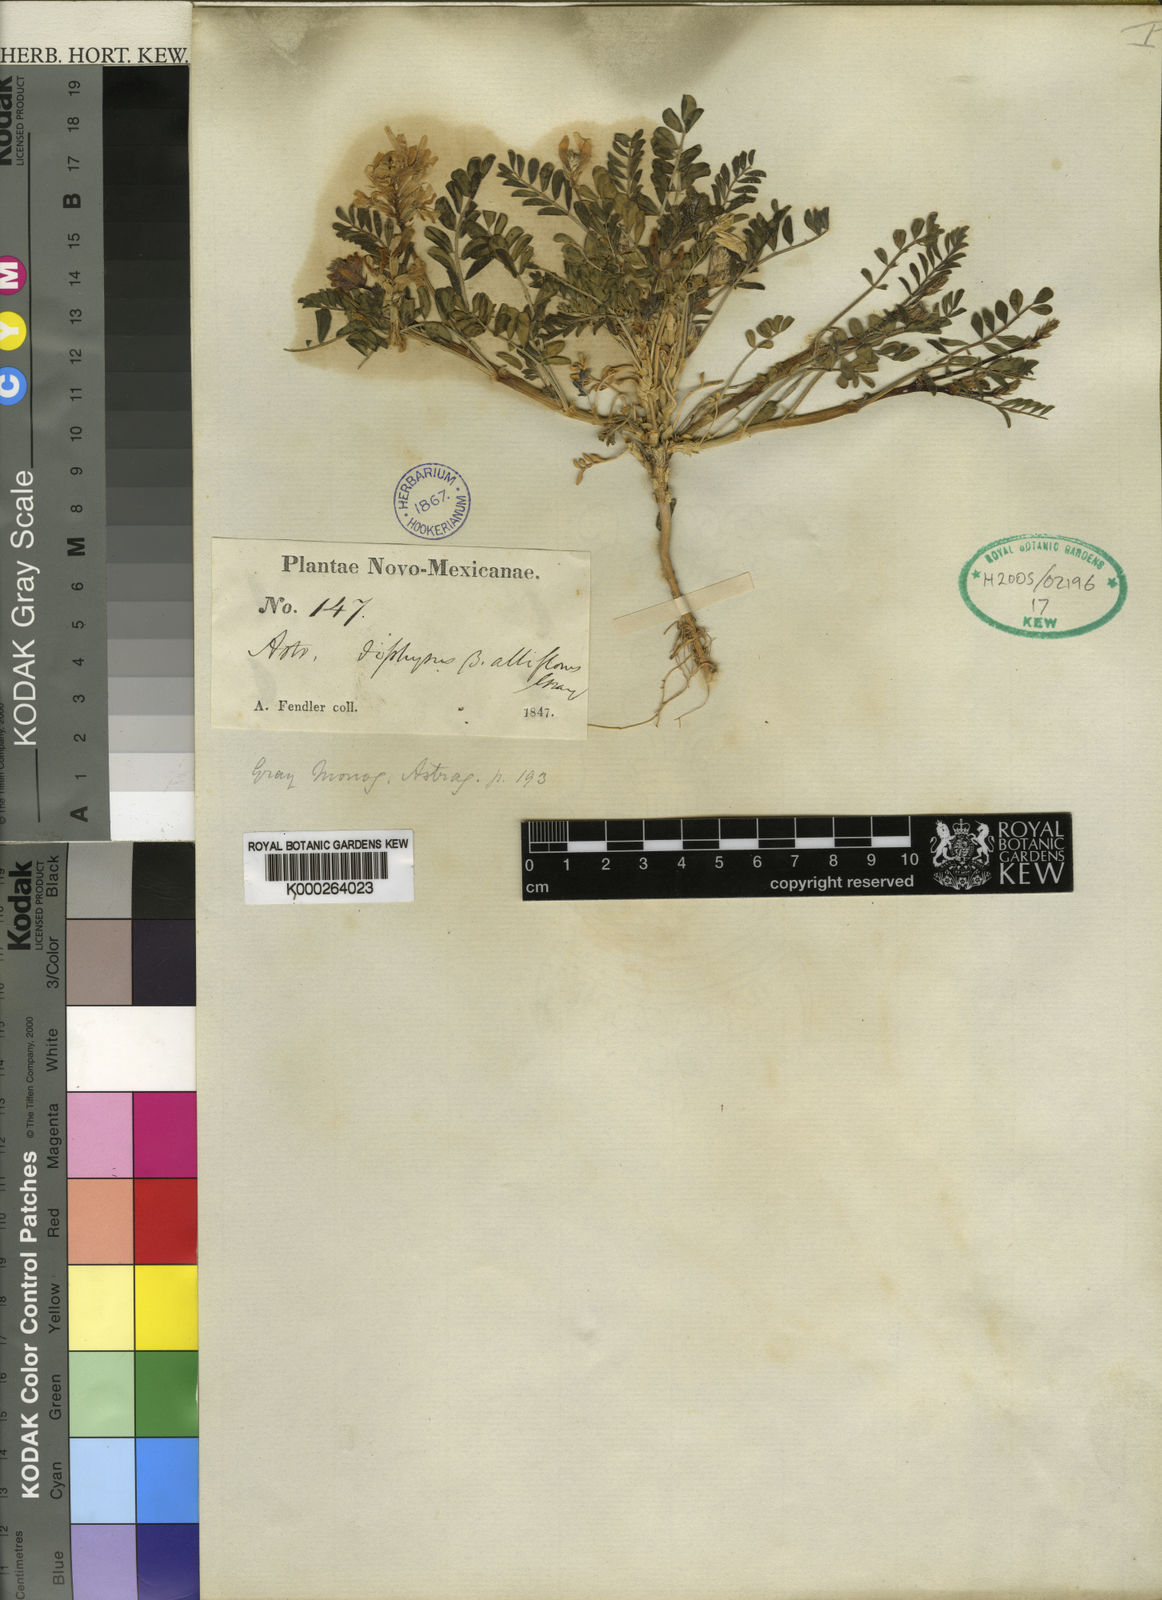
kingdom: Plantae
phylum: Tracheophyta
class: Magnoliopsida
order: Fabales
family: Fabaceae
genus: Astragalus
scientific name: Astragalus lentiginosus
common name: Freckled milkvetch
